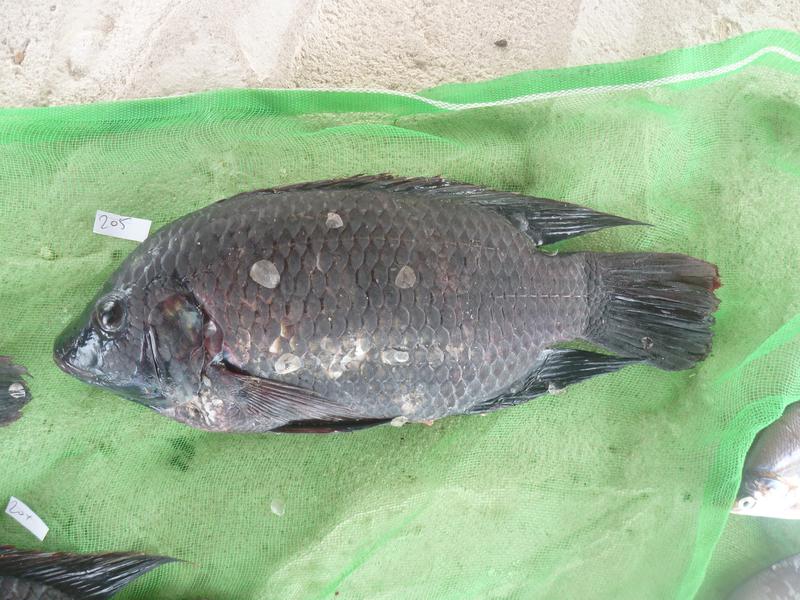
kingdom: Animalia
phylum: Chordata
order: Perciformes
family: Cichlidae
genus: Oreochromis
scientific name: Oreochromis urolepis
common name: Wami tilapia
